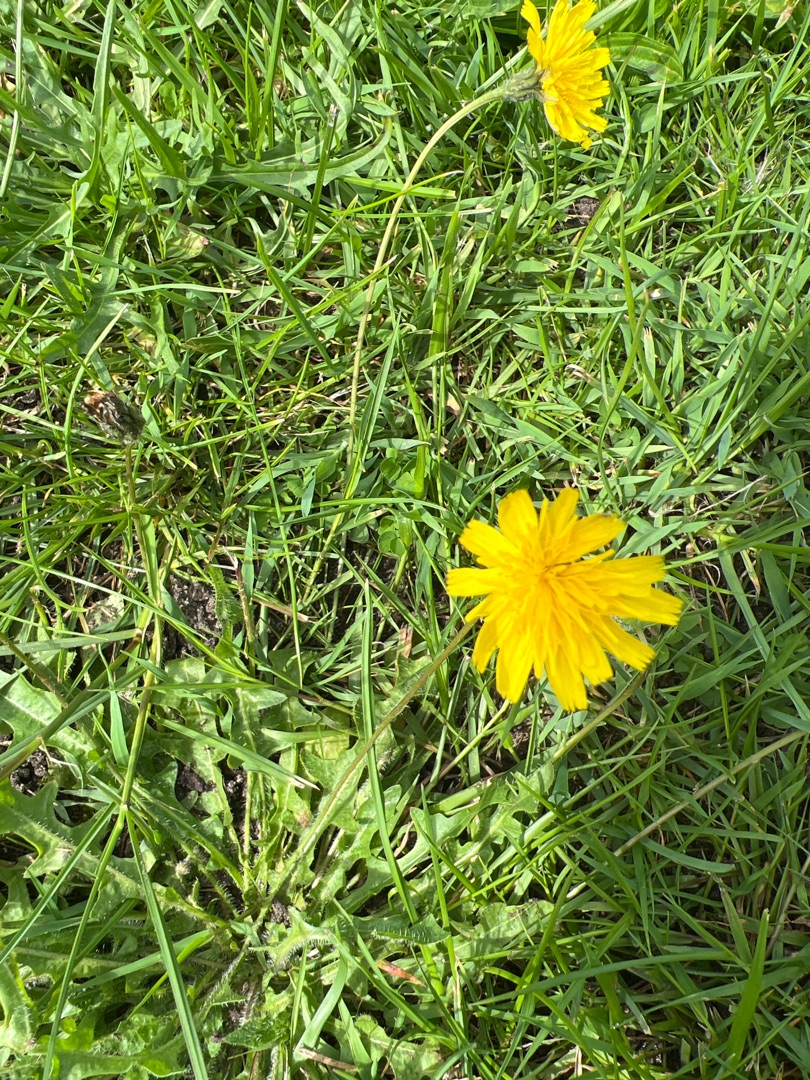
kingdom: Plantae
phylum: Tracheophyta
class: Magnoliopsida
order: Asterales
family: Asteraceae
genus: Scorzoneroides
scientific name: Scorzoneroides autumnalis
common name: Høst-borst
